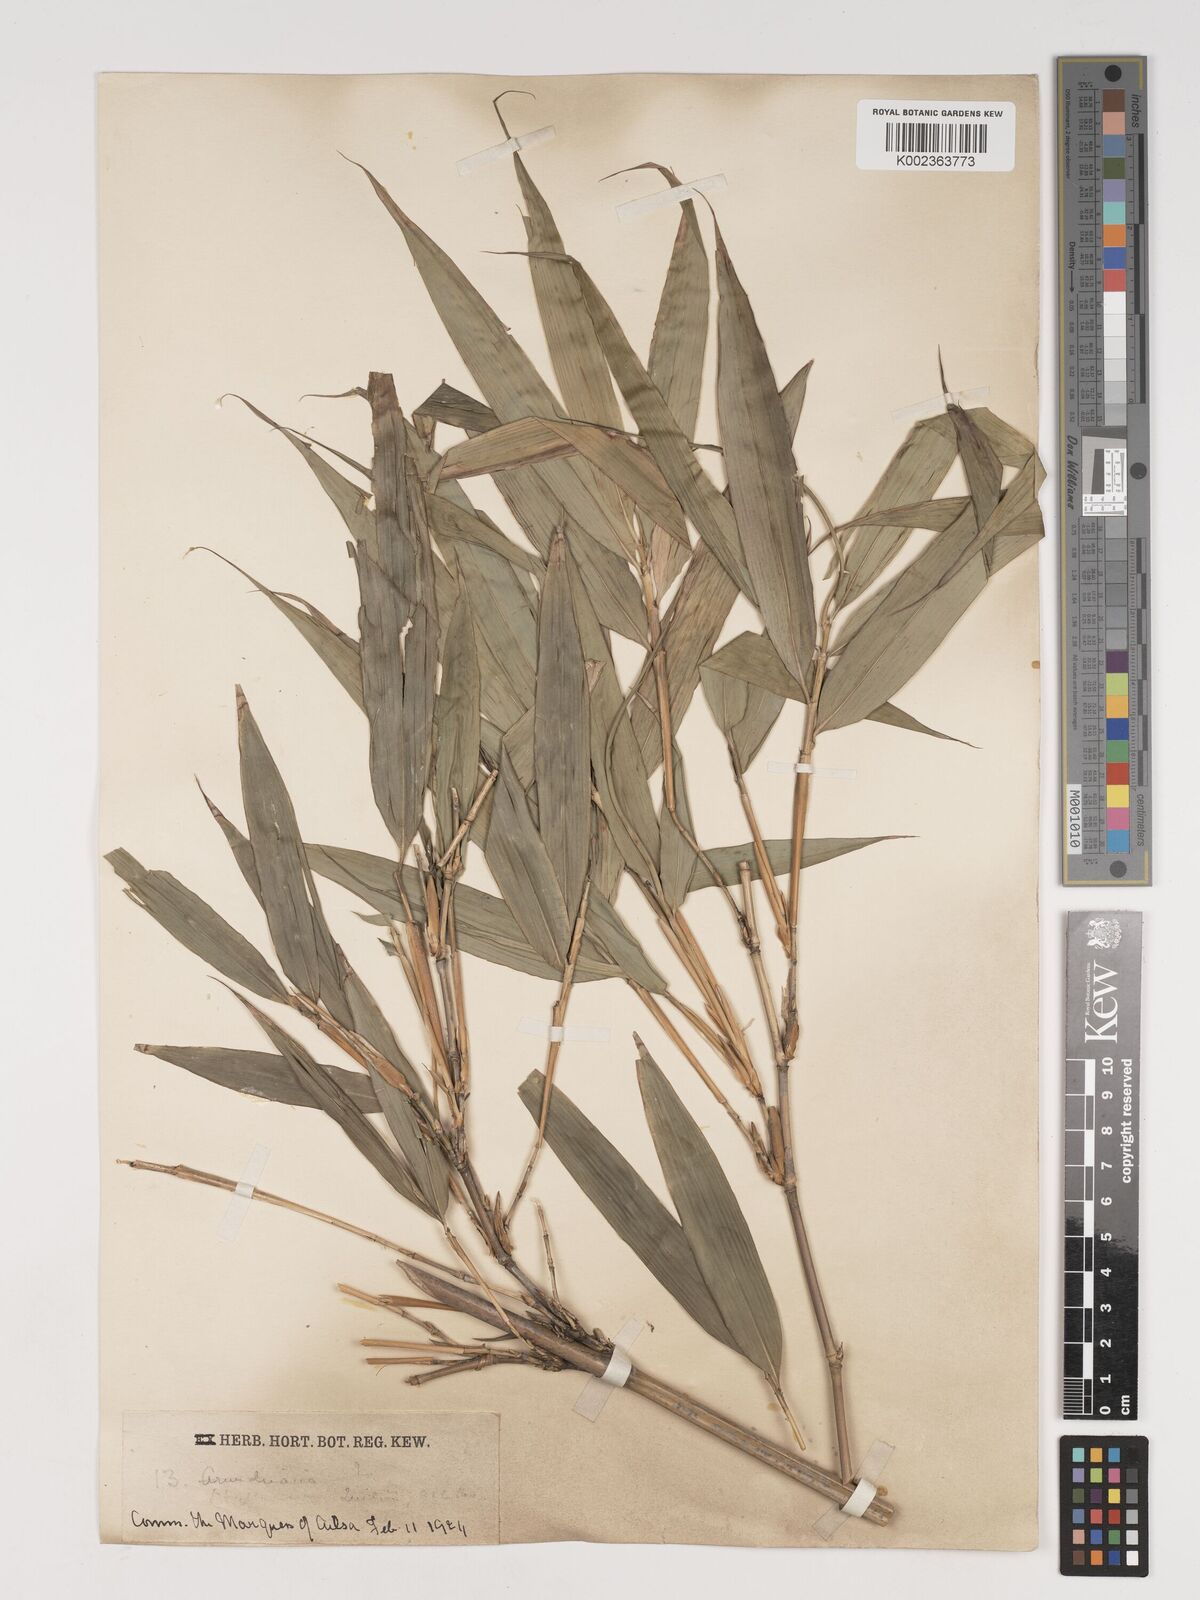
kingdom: Plantae
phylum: Tracheophyta
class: Liliopsida
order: Poales
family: Poaceae
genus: Phyllostachys
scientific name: Phyllostachys reticulata
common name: Bamboo
